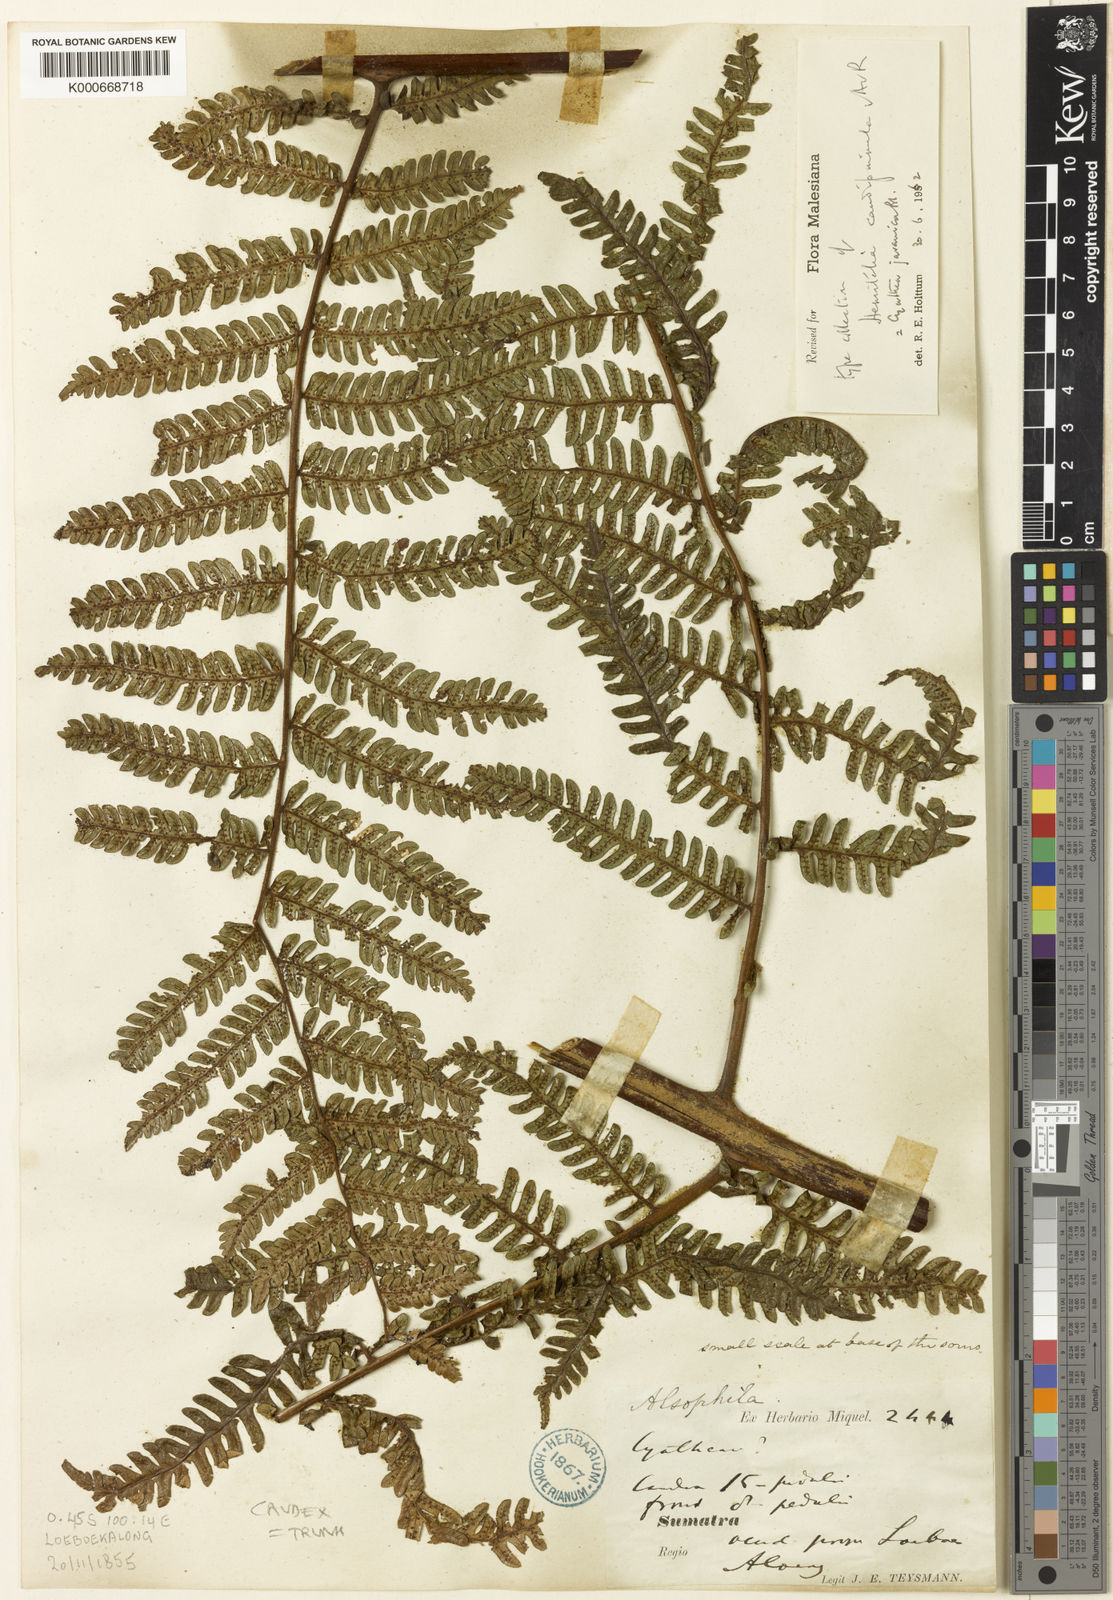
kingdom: Plantae
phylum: Tracheophyta
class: Polypodiopsida
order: Cyatheales
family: Cyatheaceae
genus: Alsophila
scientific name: Alsophila javanica
